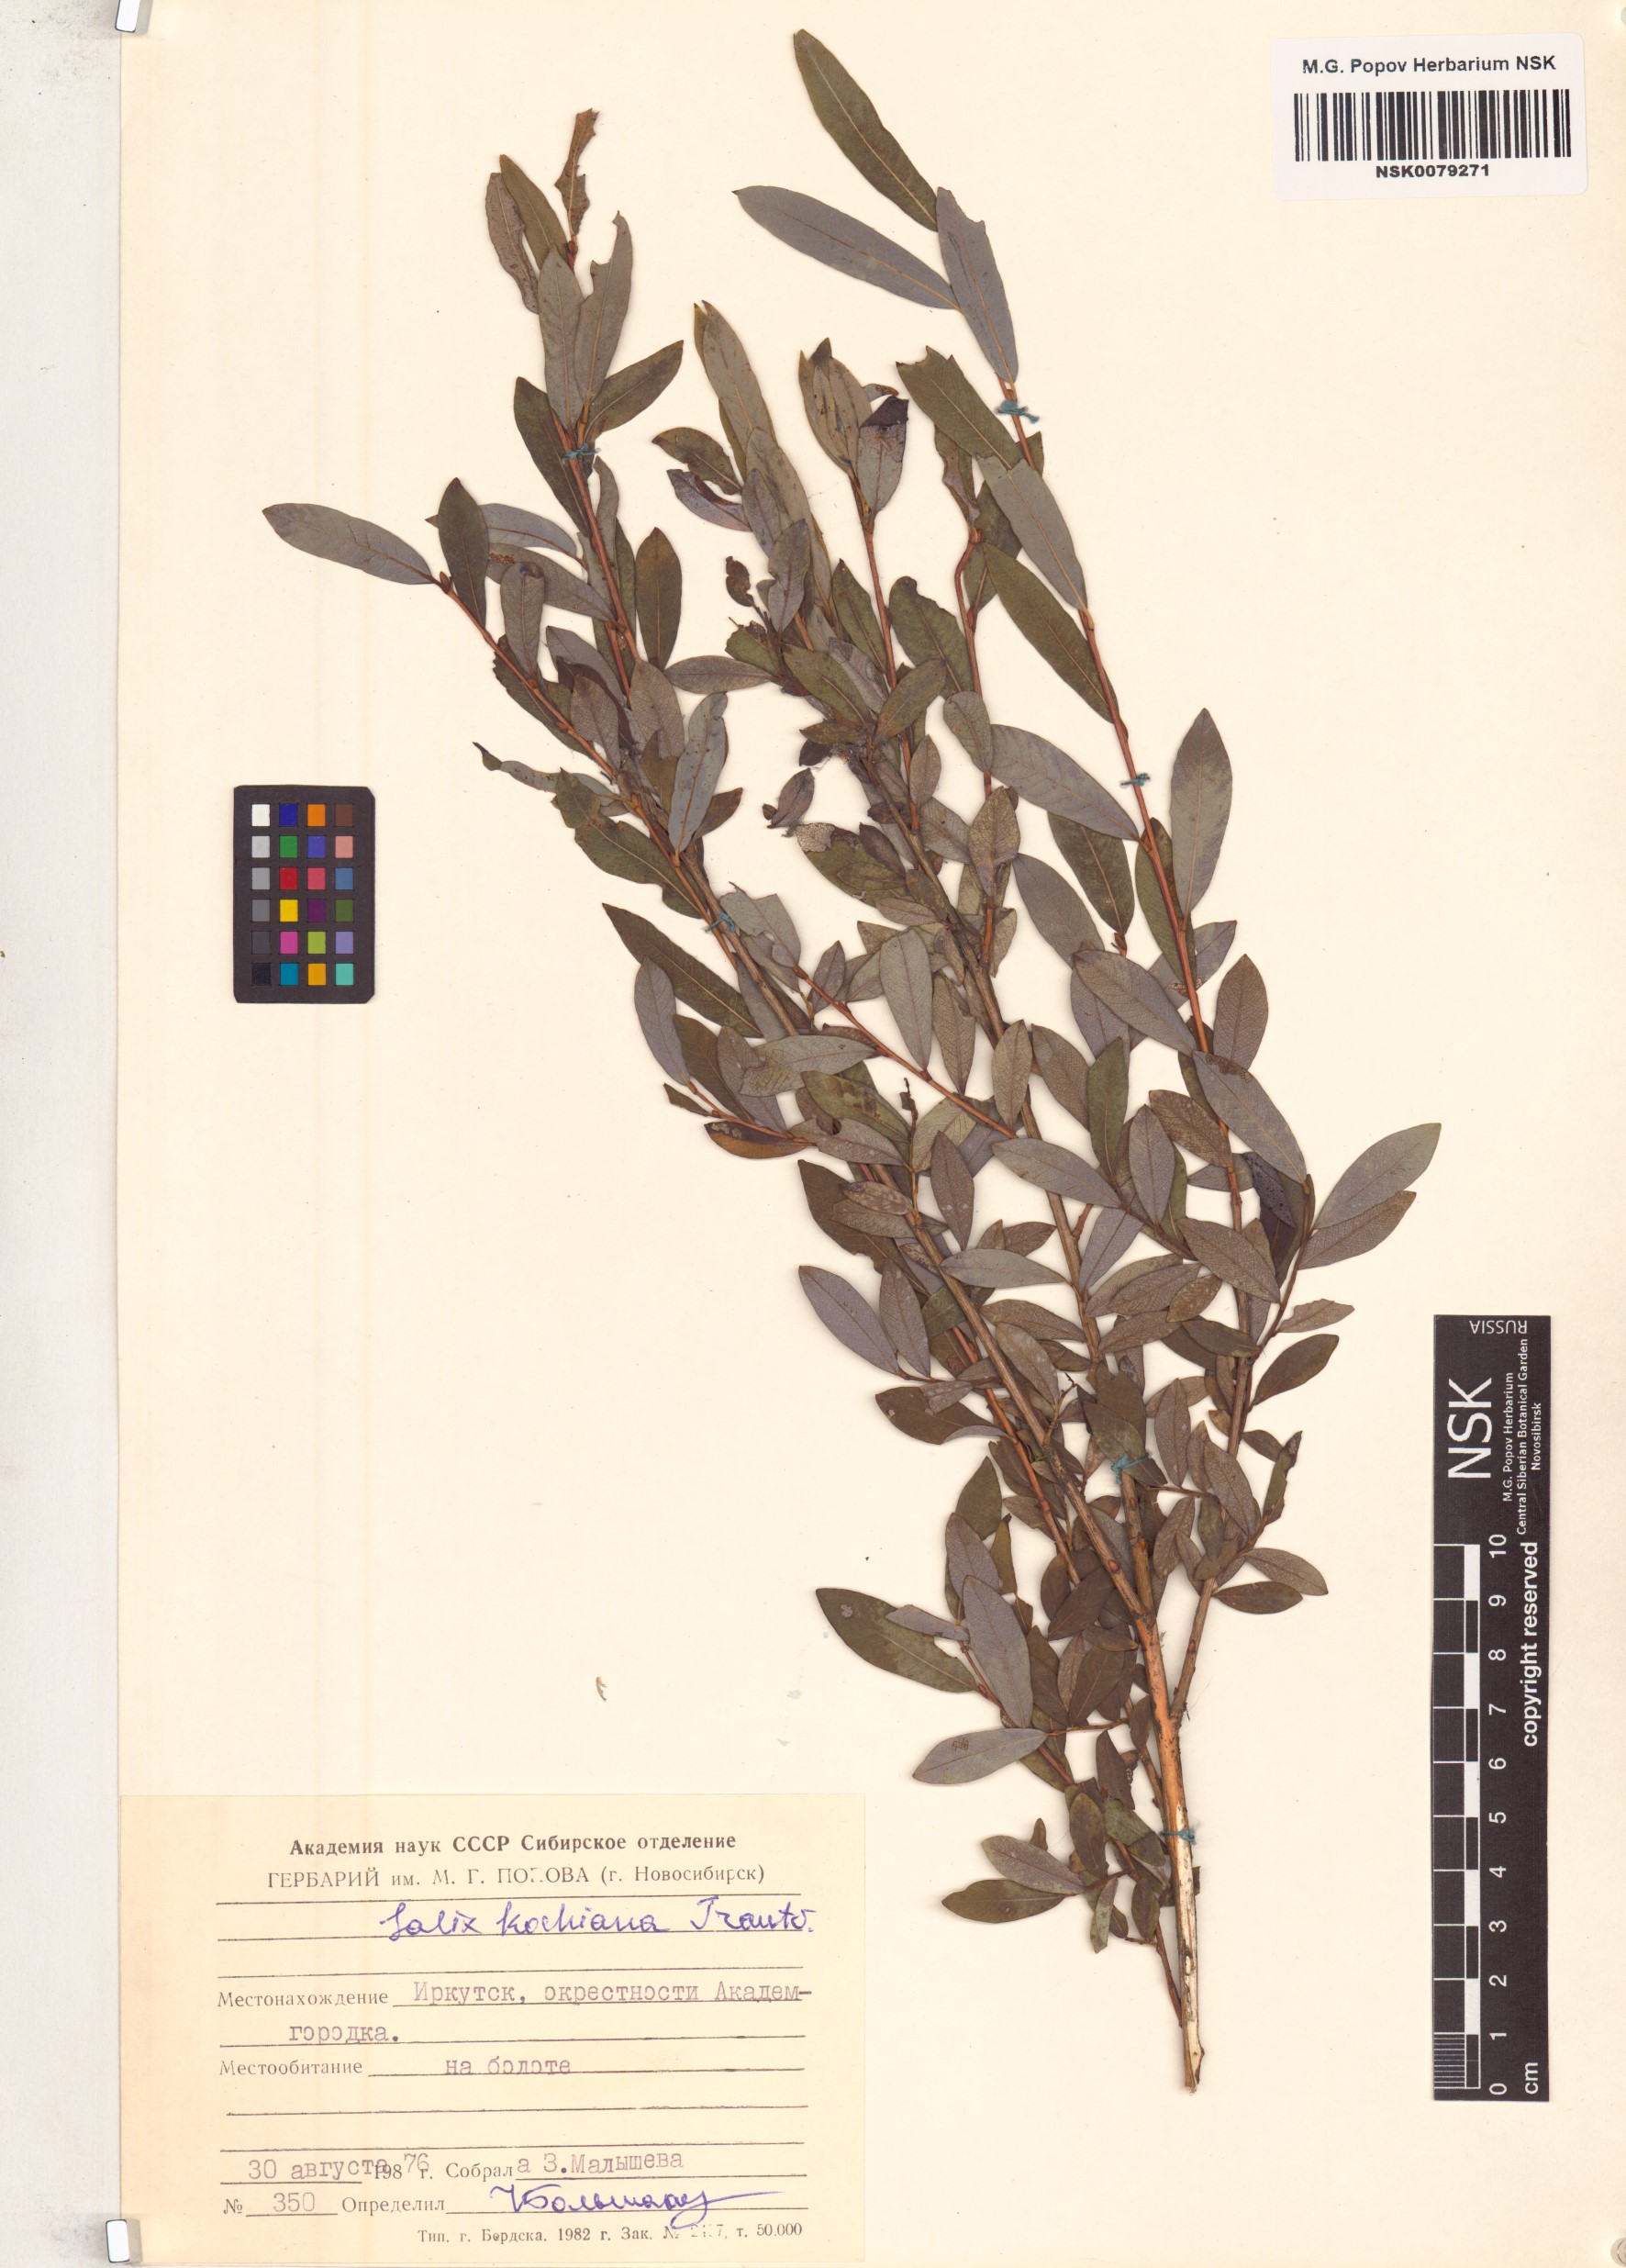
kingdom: Plantae
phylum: Tracheophyta
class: Magnoliopsida
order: Malpighiales
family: Salicaceae
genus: Salix
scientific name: Salix kochiana
